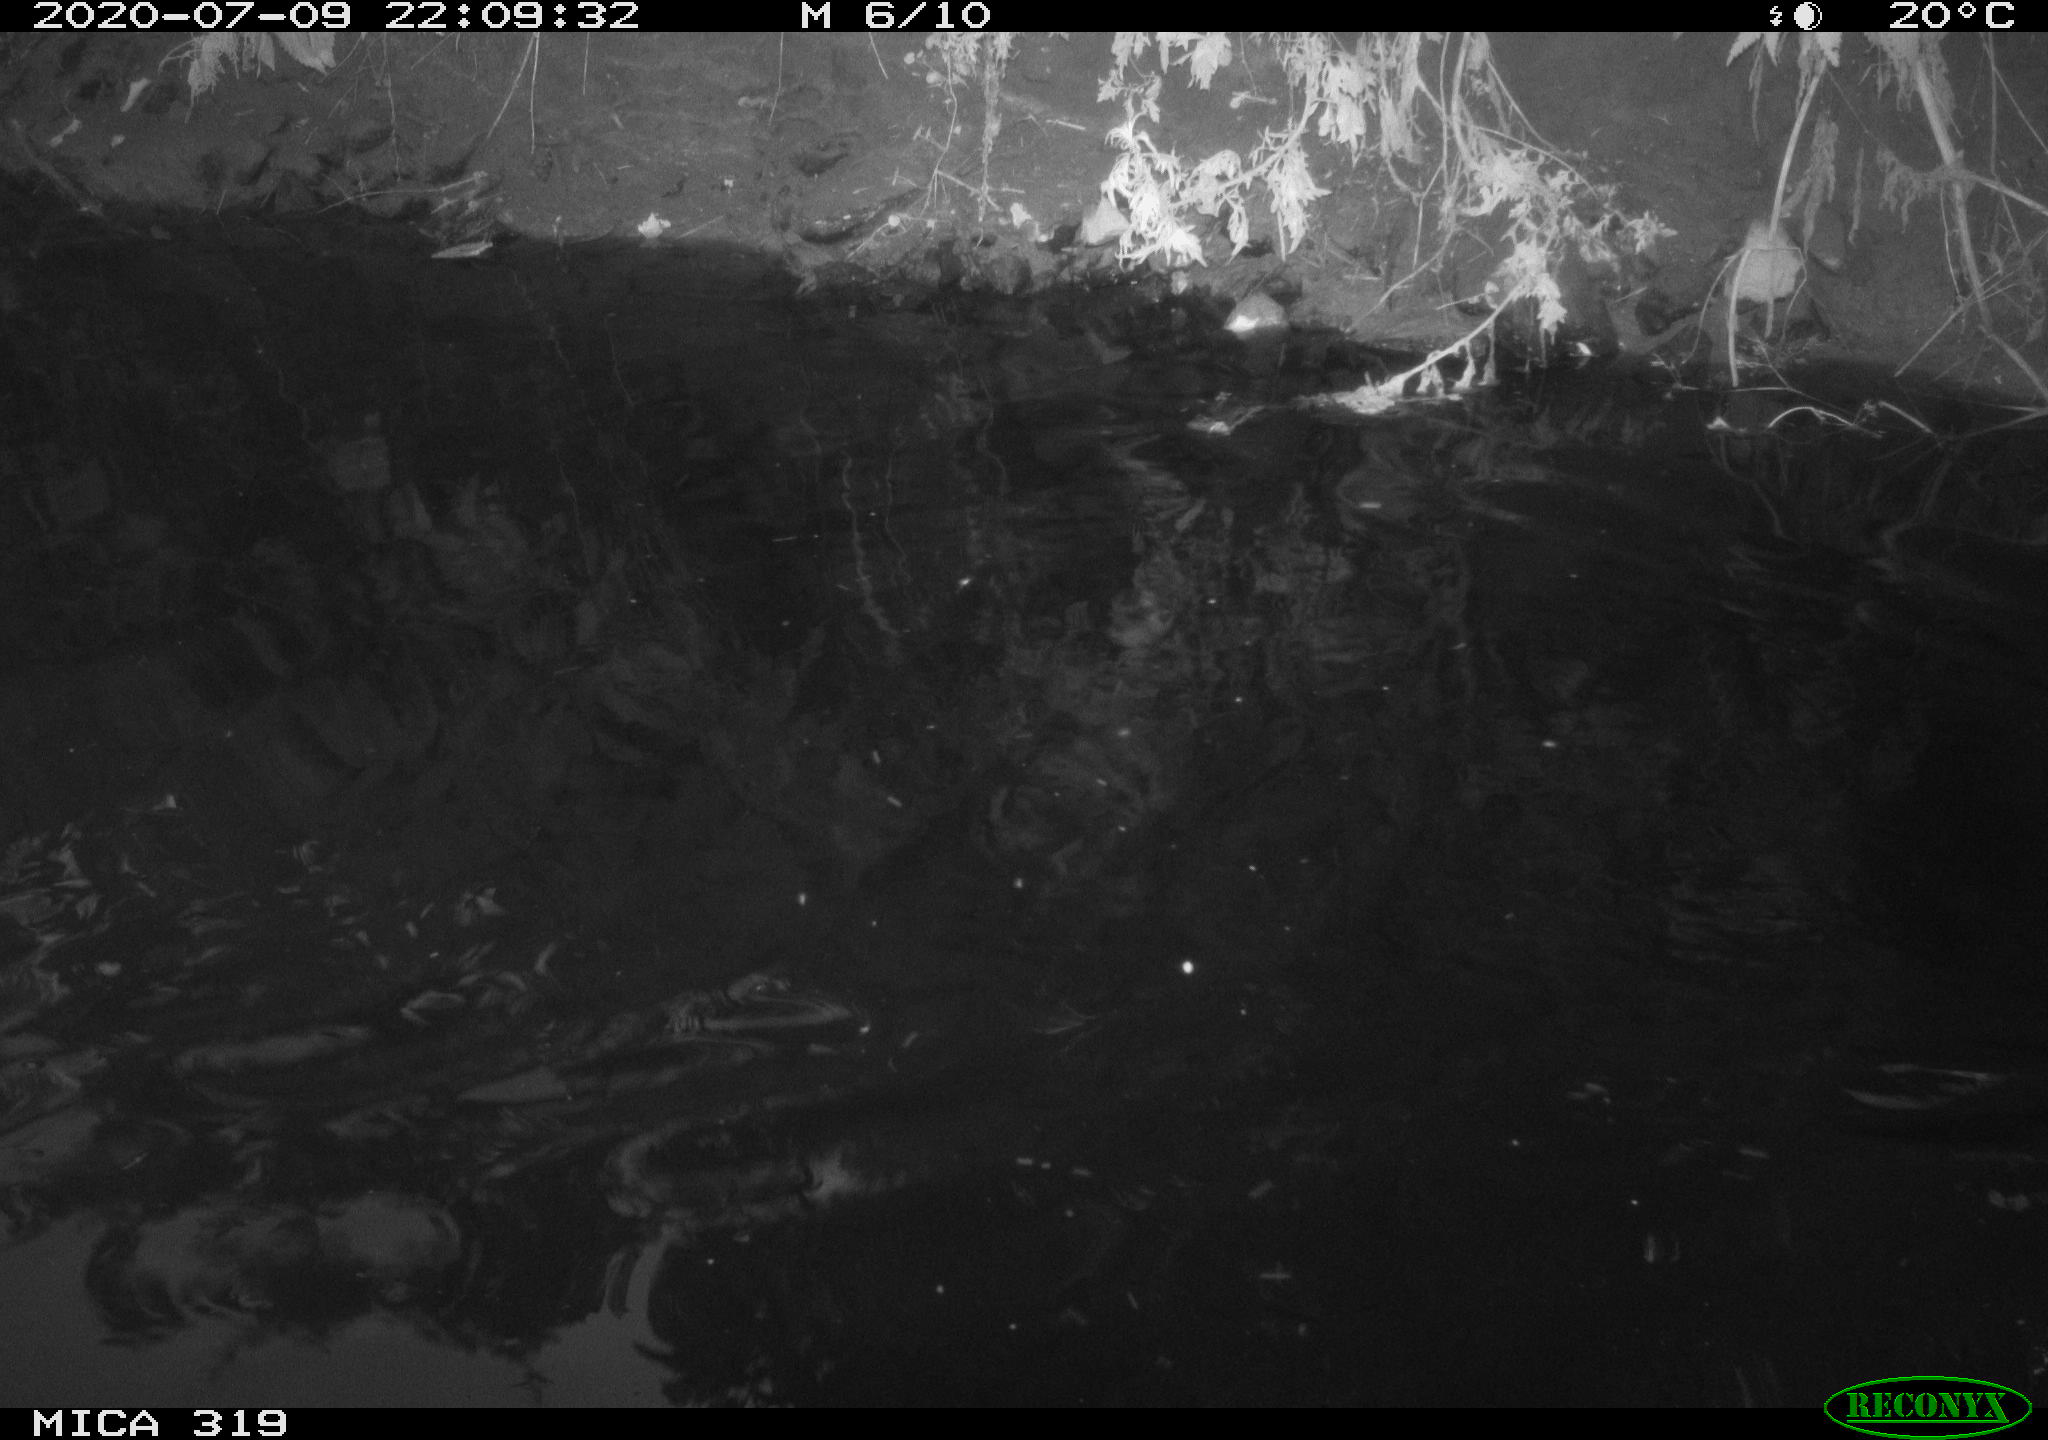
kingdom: Animalia
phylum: Chordata
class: Aves
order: Anseriformes
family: Anatidae
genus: Anas
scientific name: Anas platyrhynchos
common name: Mallard
